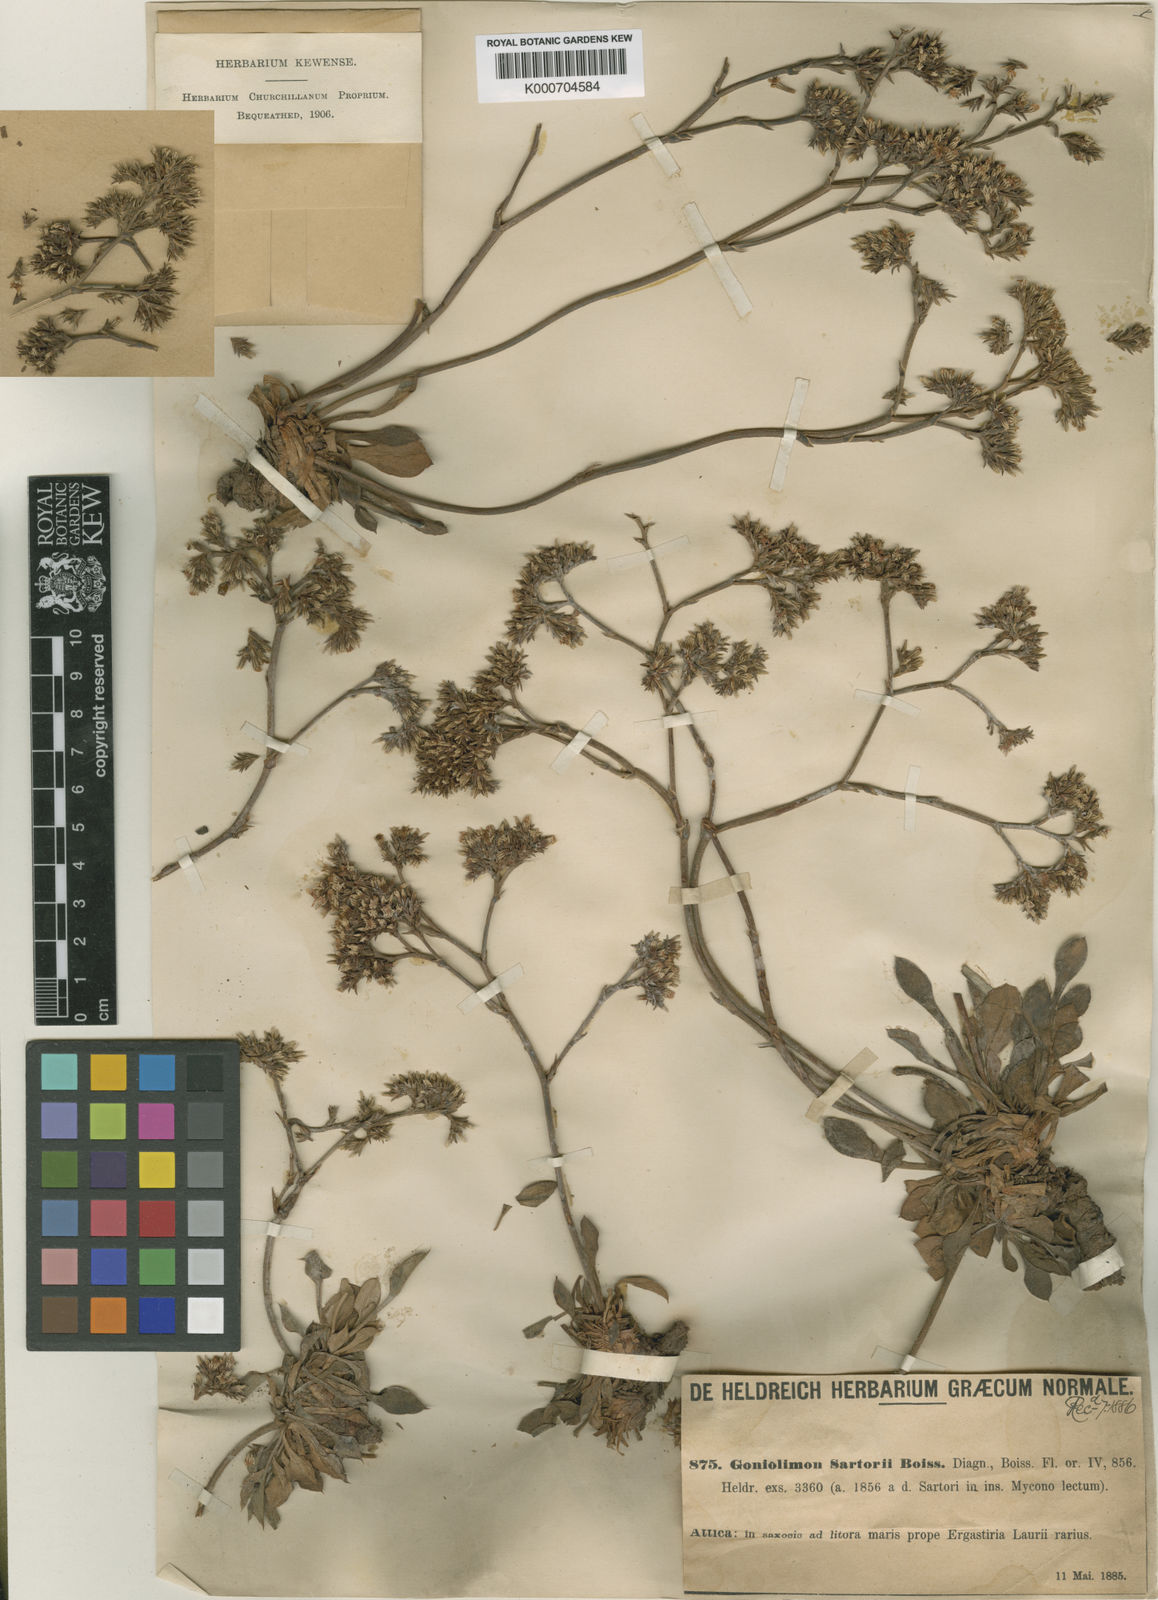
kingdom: Plantae
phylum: Tracheophyta
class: Magnoliopsida
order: Caryophyllales
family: Plumbaginaceae
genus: Goniolimon
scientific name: Goniolimon sartorii
